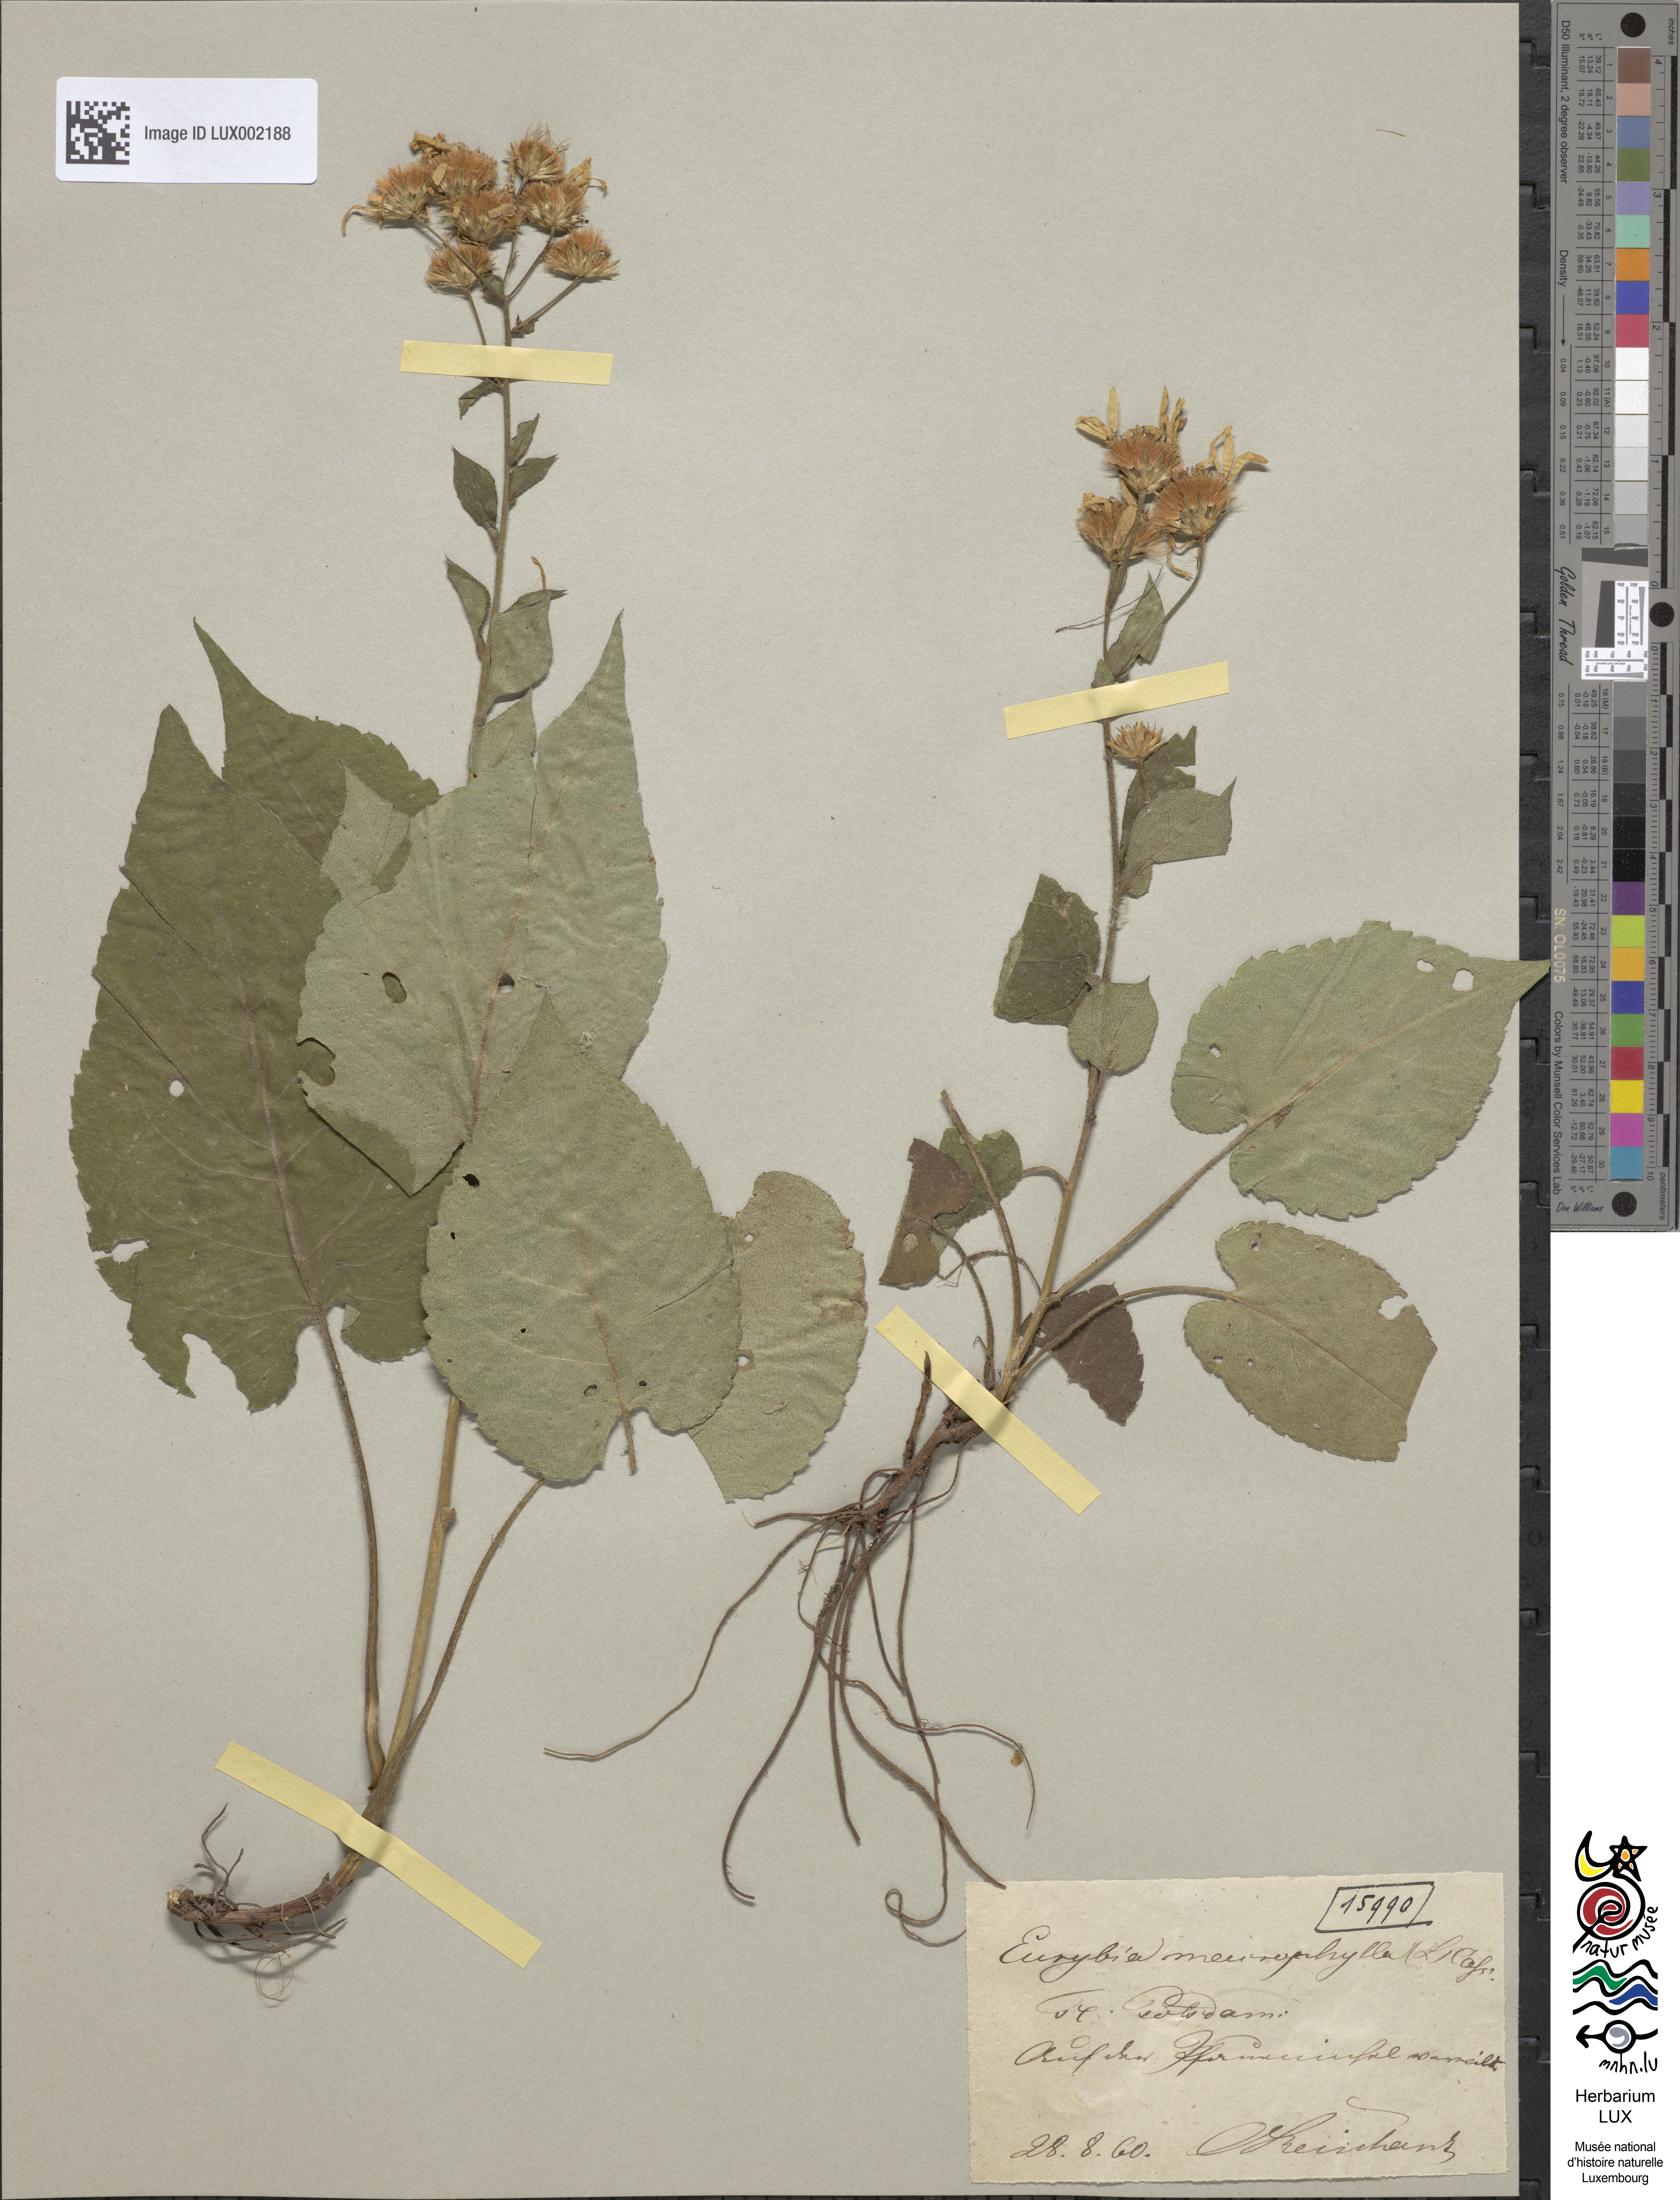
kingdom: Plantae
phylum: Tracheophyta
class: Magnoliopsida
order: Asterales
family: Asteraceae
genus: Eurybia
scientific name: Eurybia macrophylla
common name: Big-leaved aster
